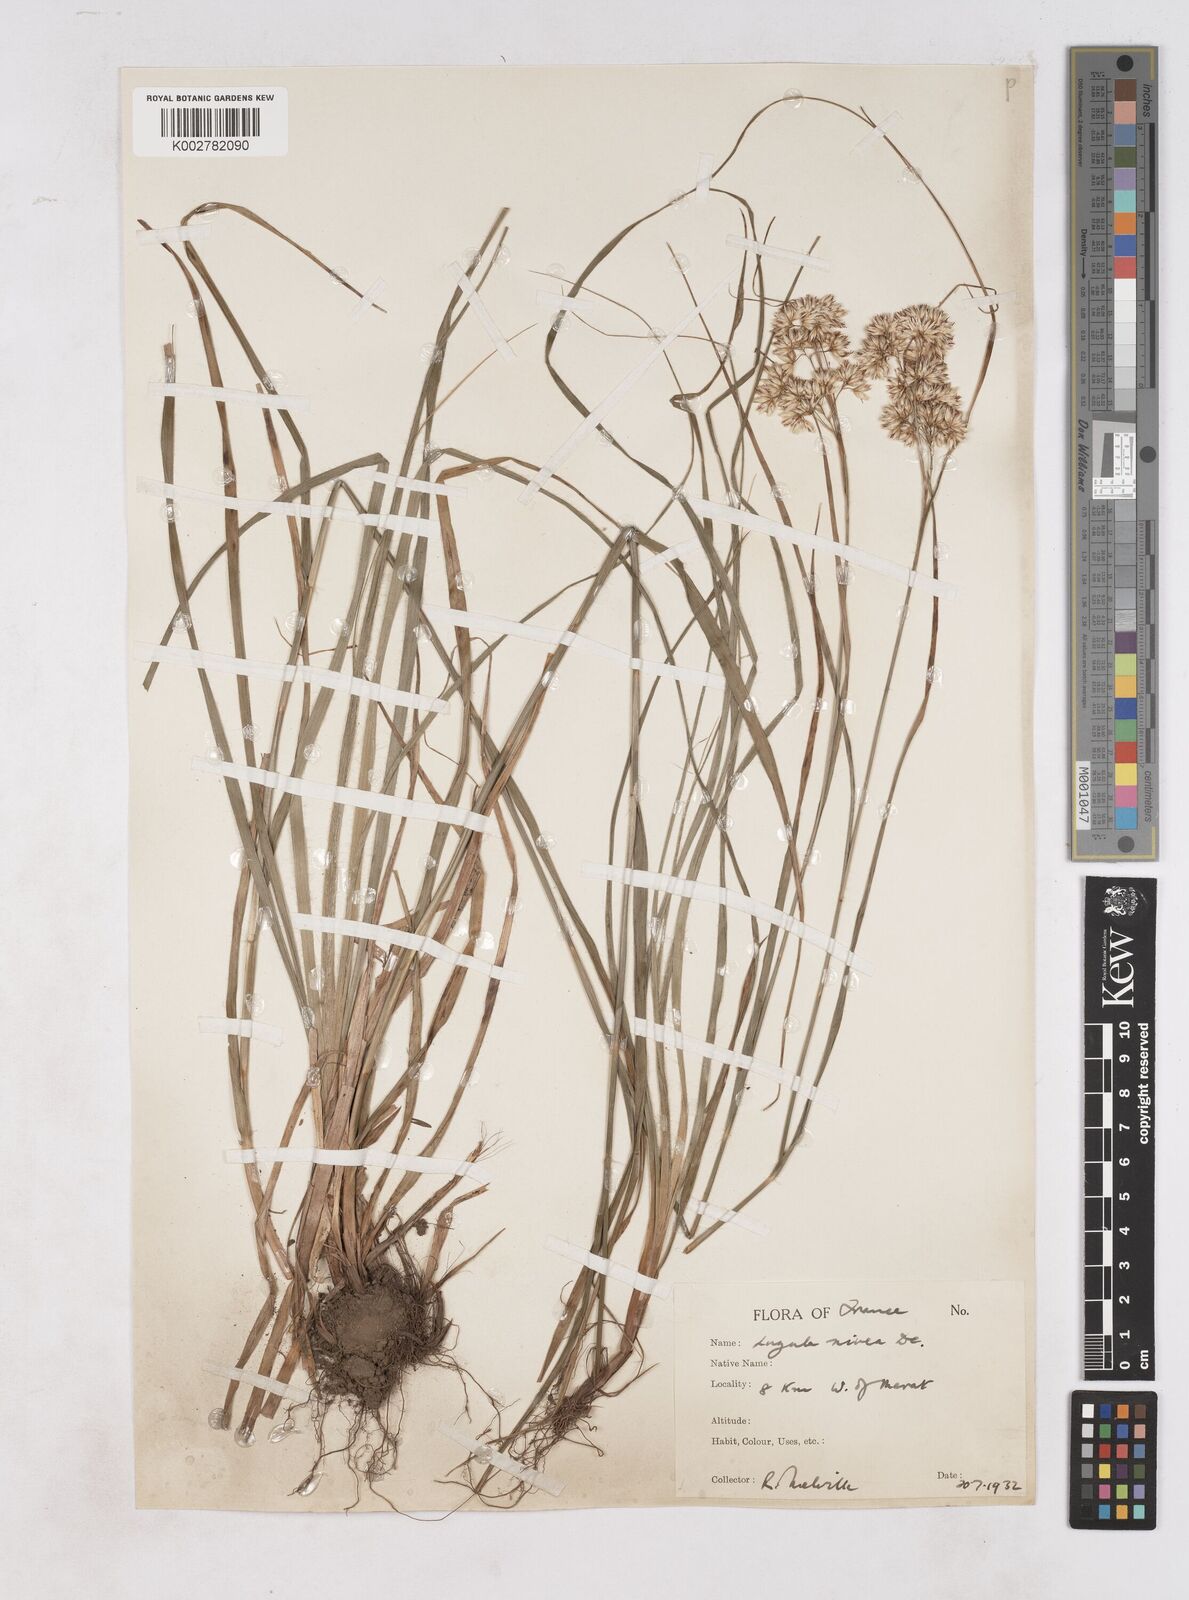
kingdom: Plantae
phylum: Tracheophyta
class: Liliopsida
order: Poales
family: Juncaceae
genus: Luzula
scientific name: Luzula nivea
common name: Snow-white wood-rush
